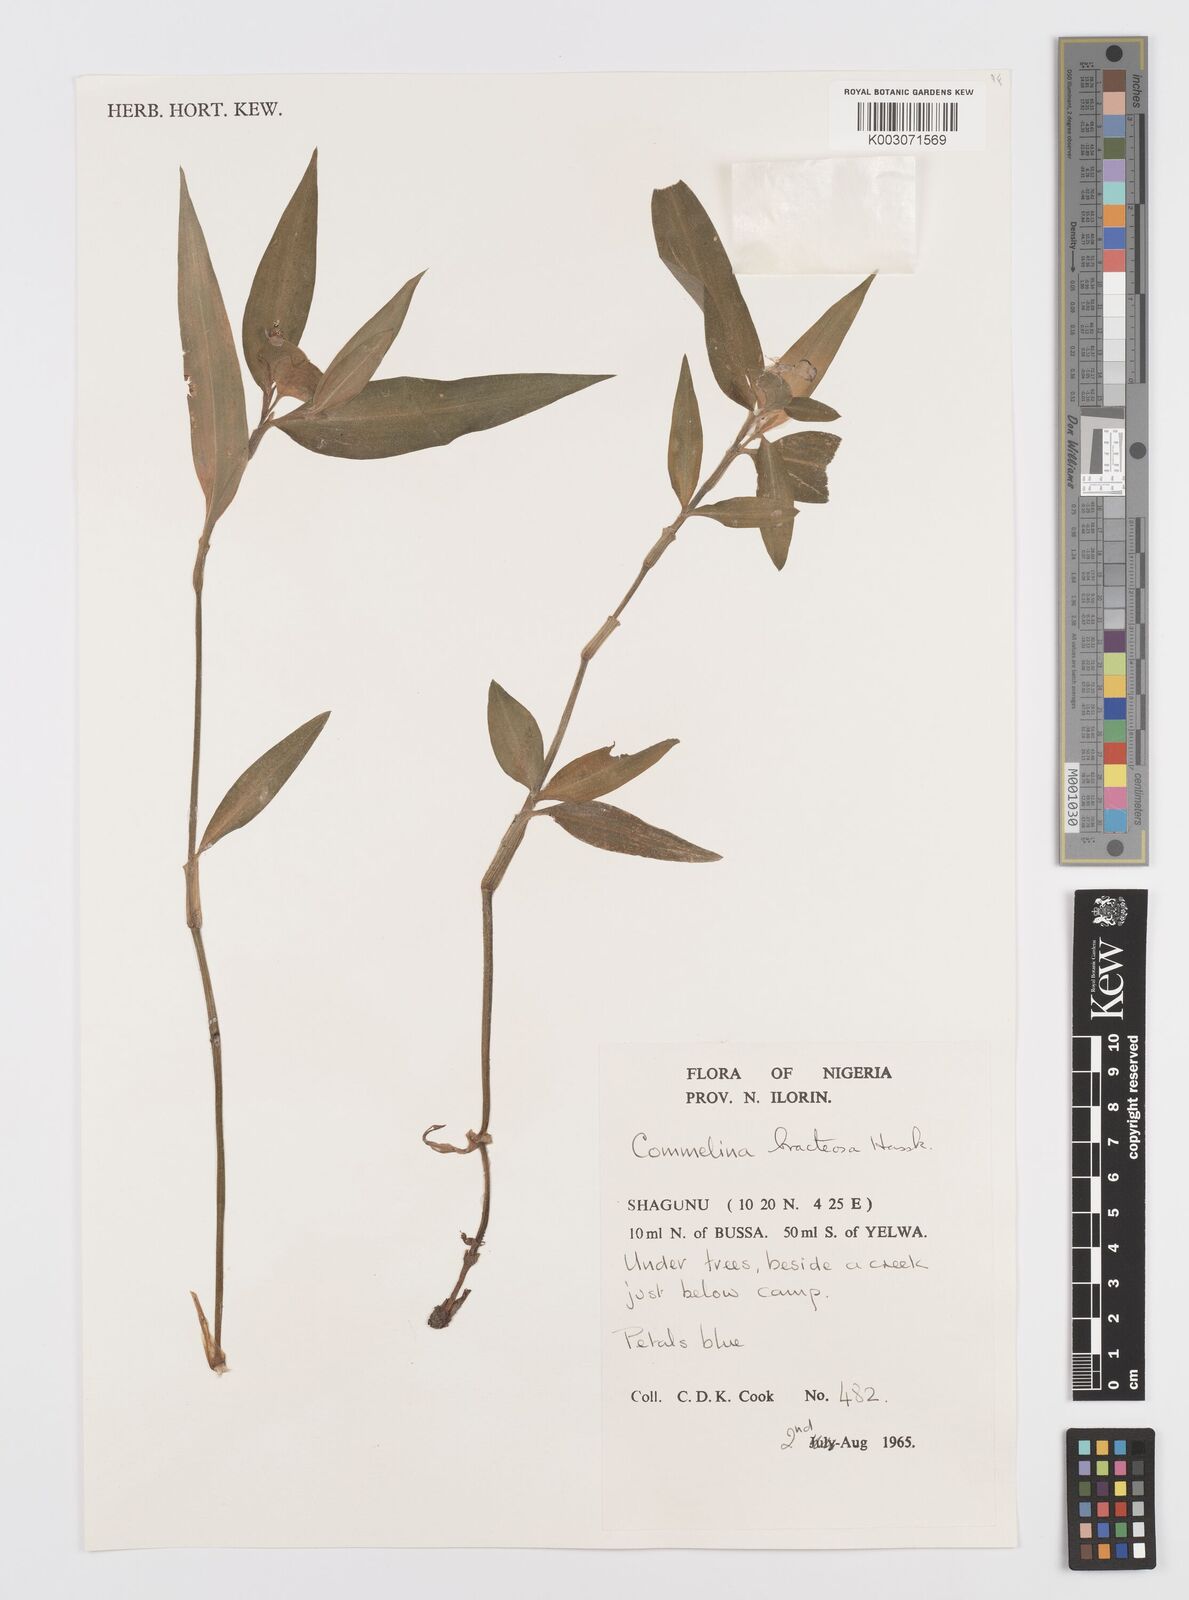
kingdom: Plantae
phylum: Tracheophyta
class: Liliopsida
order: Commelinales
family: Commelinaceae
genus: Commelina
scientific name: Commelina bracteosa
